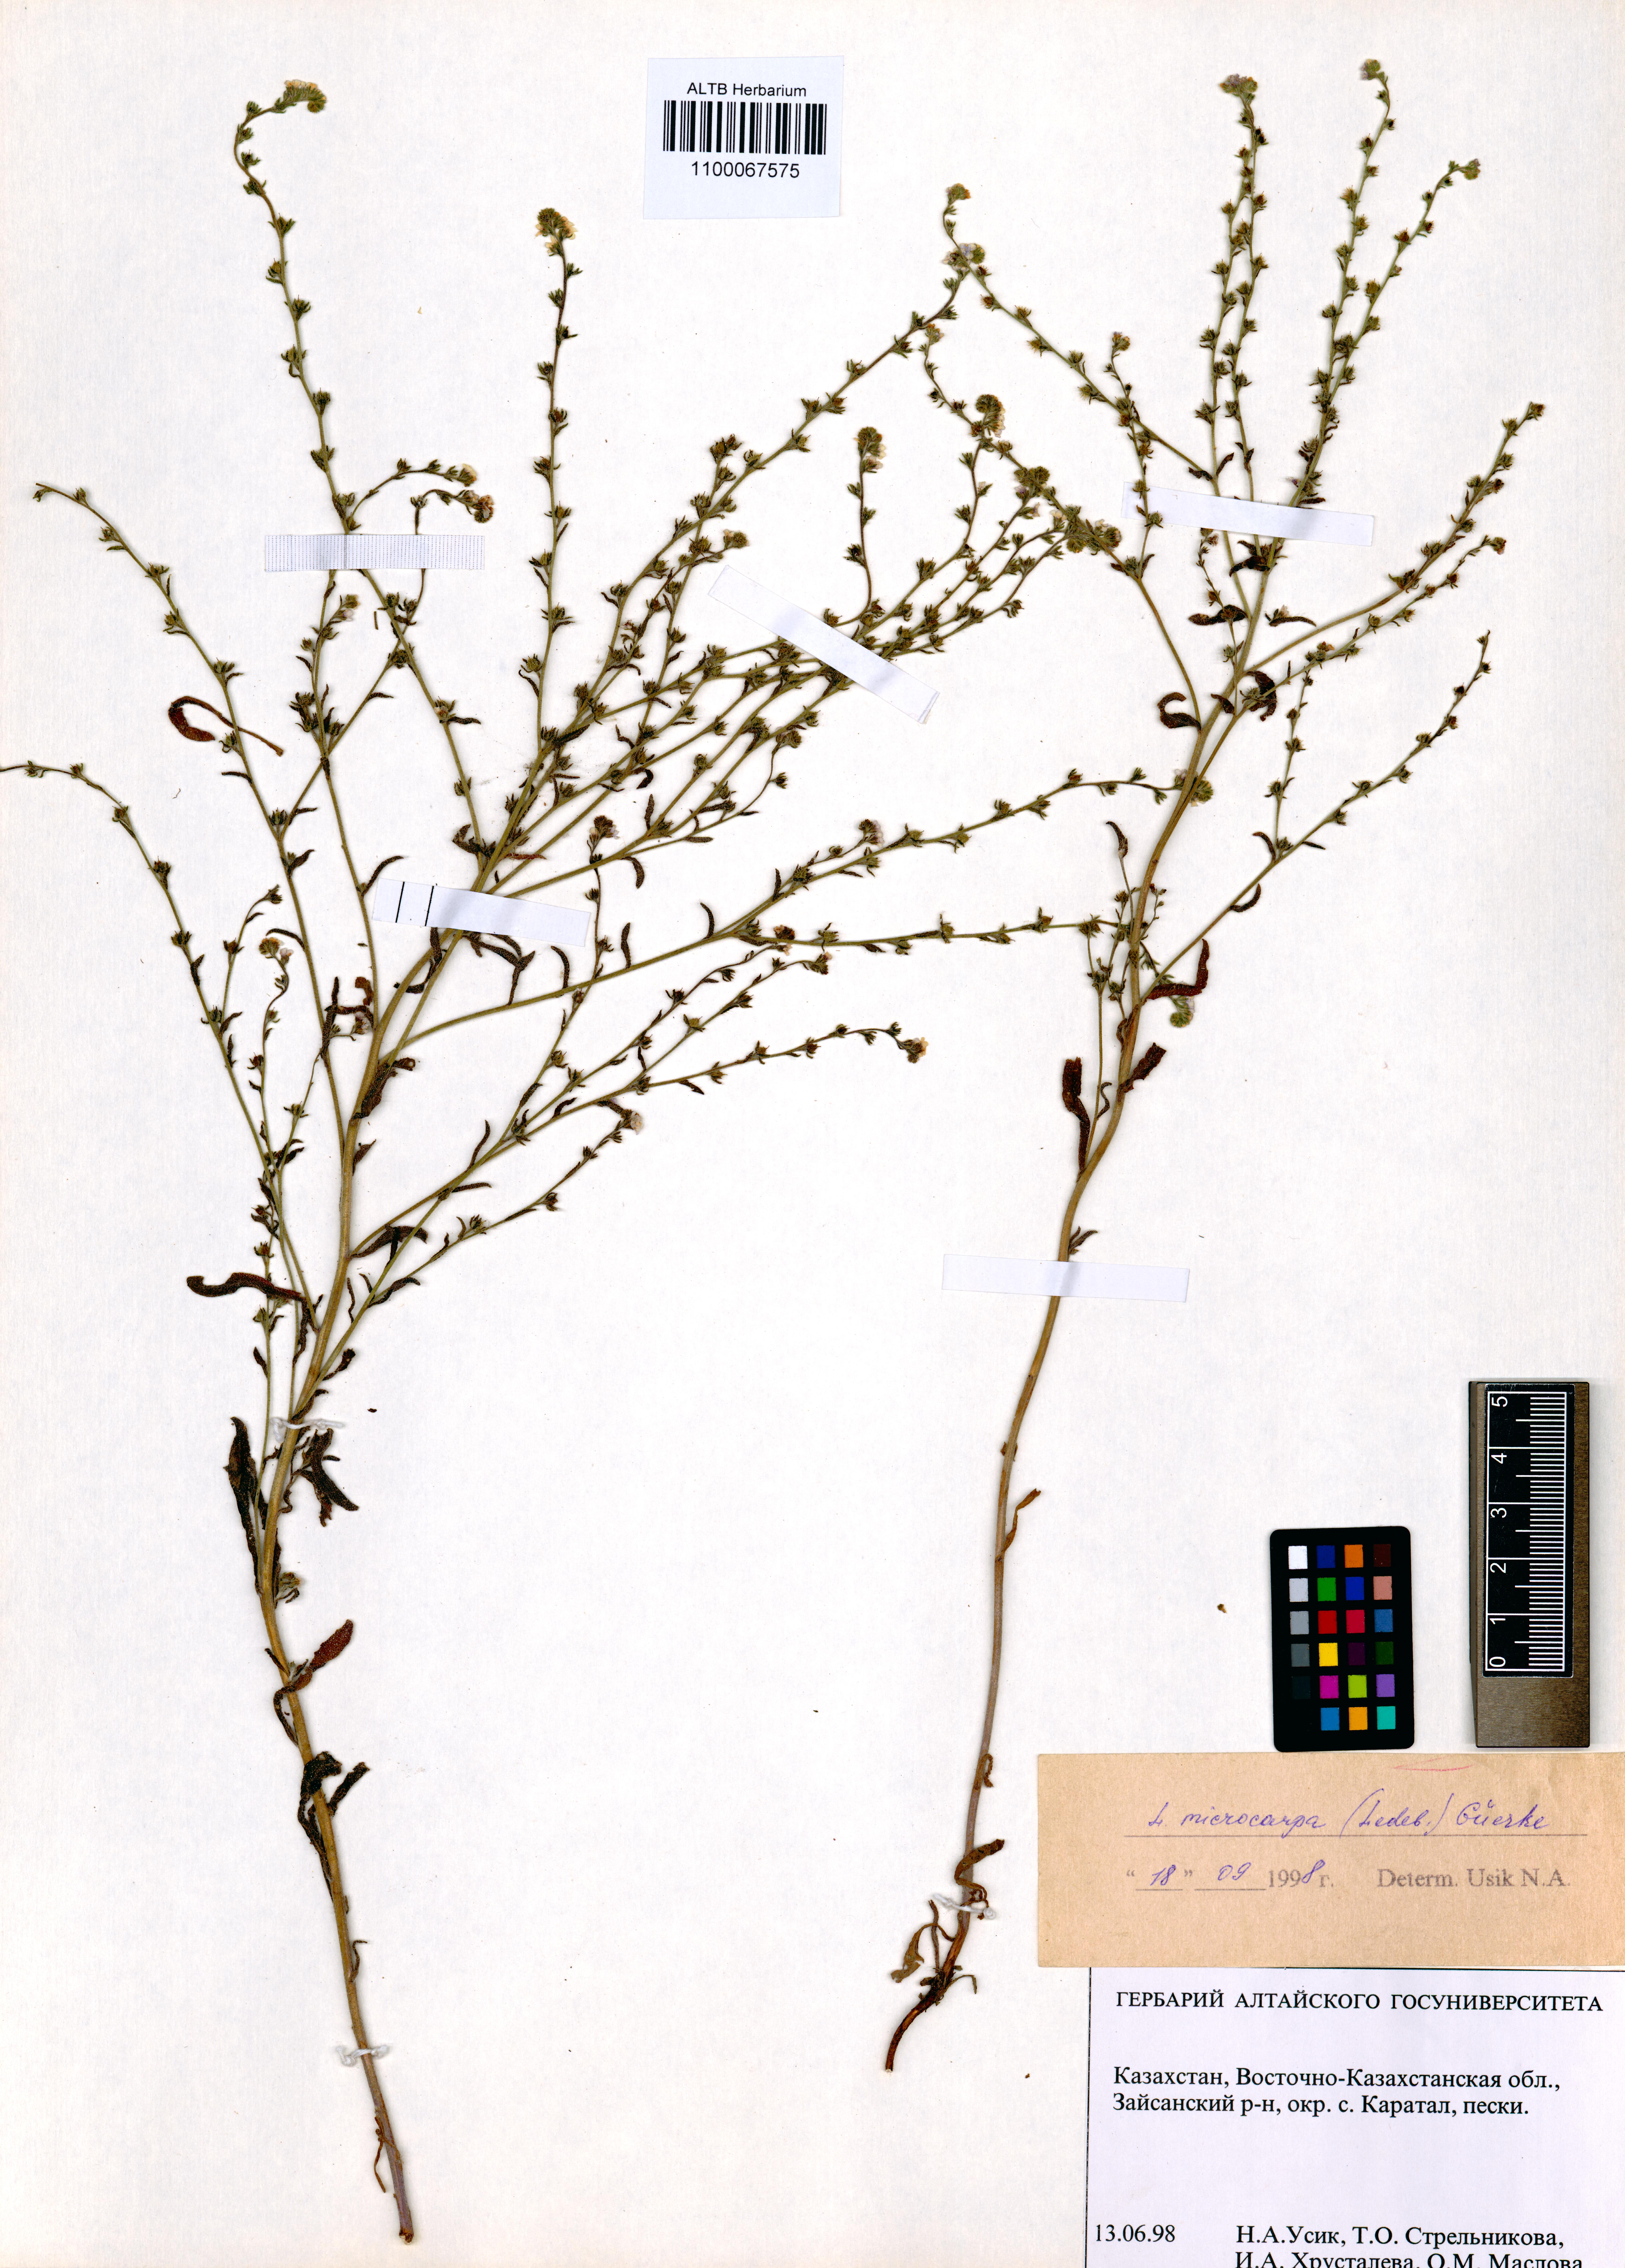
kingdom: Plantae
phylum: Tracheophyta
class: Magnoliopsida
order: Boraginales
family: Boraginaceae
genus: Lappula
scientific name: Lappula microcarpa
